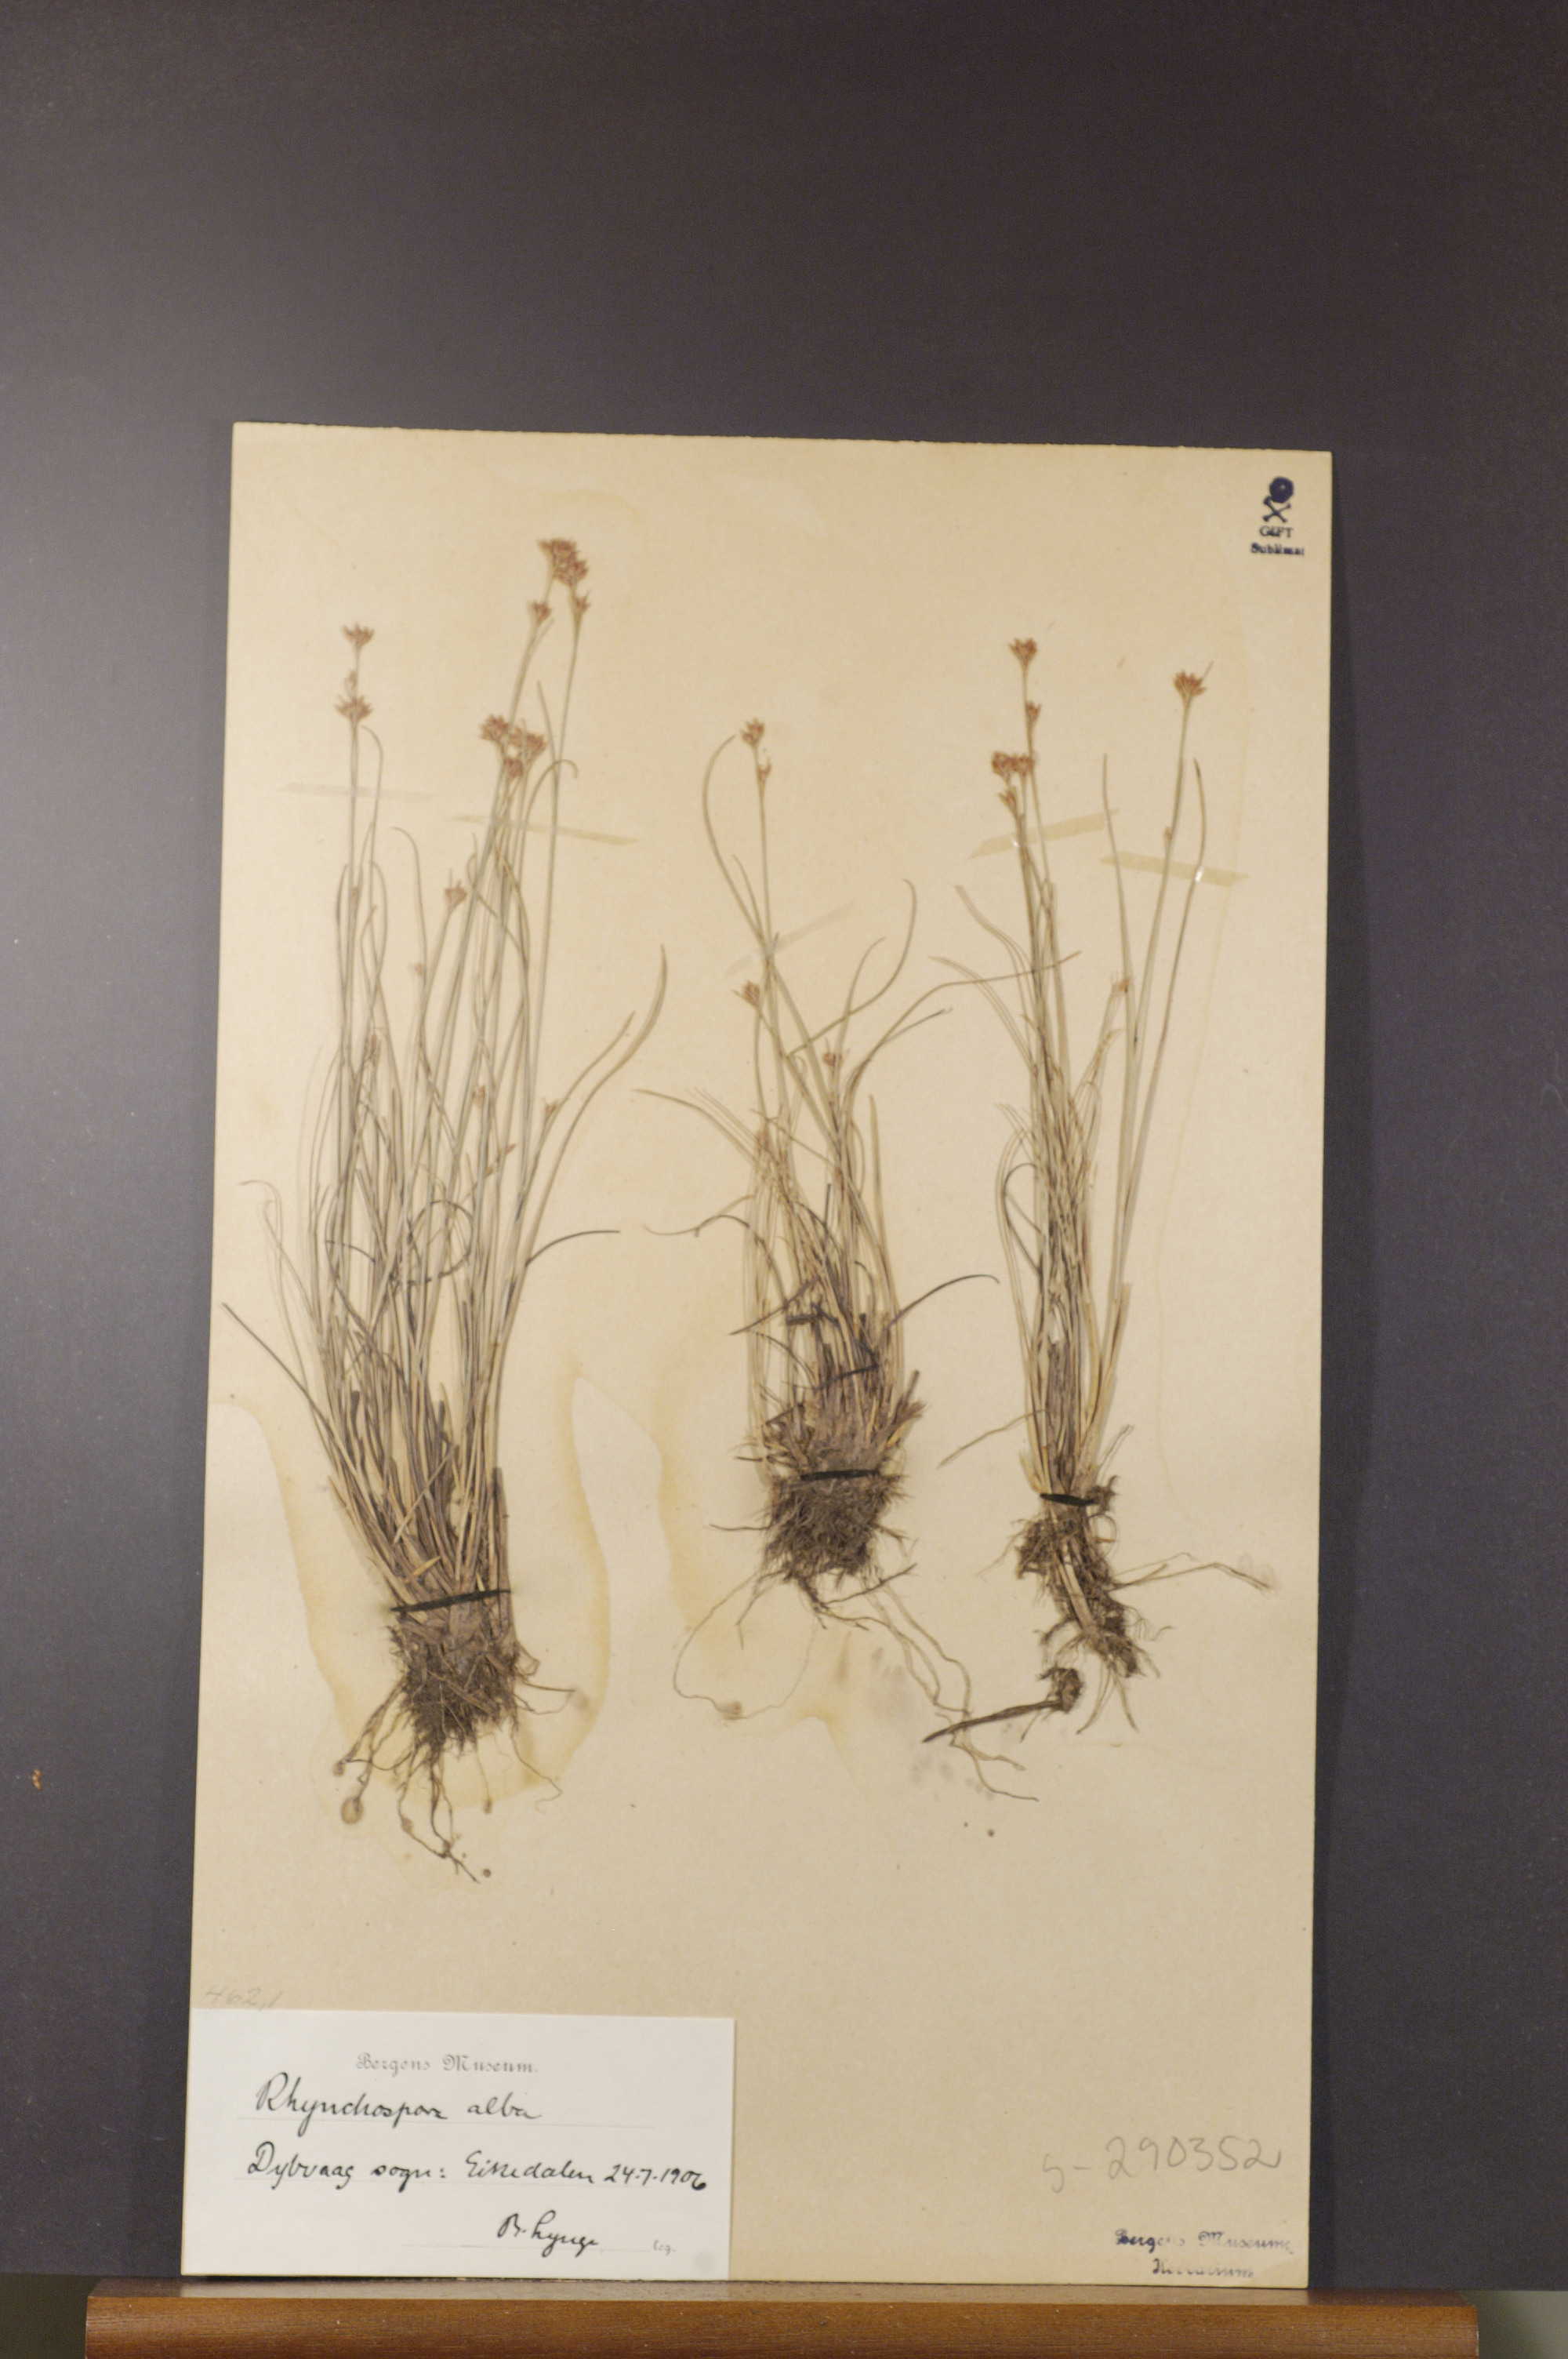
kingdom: Plantae
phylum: Tracheophyta
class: Liliopsida
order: Poales
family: Cyperaceae
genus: Rhynchospora
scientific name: Rhynchospora alba
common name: White beak-sedge
